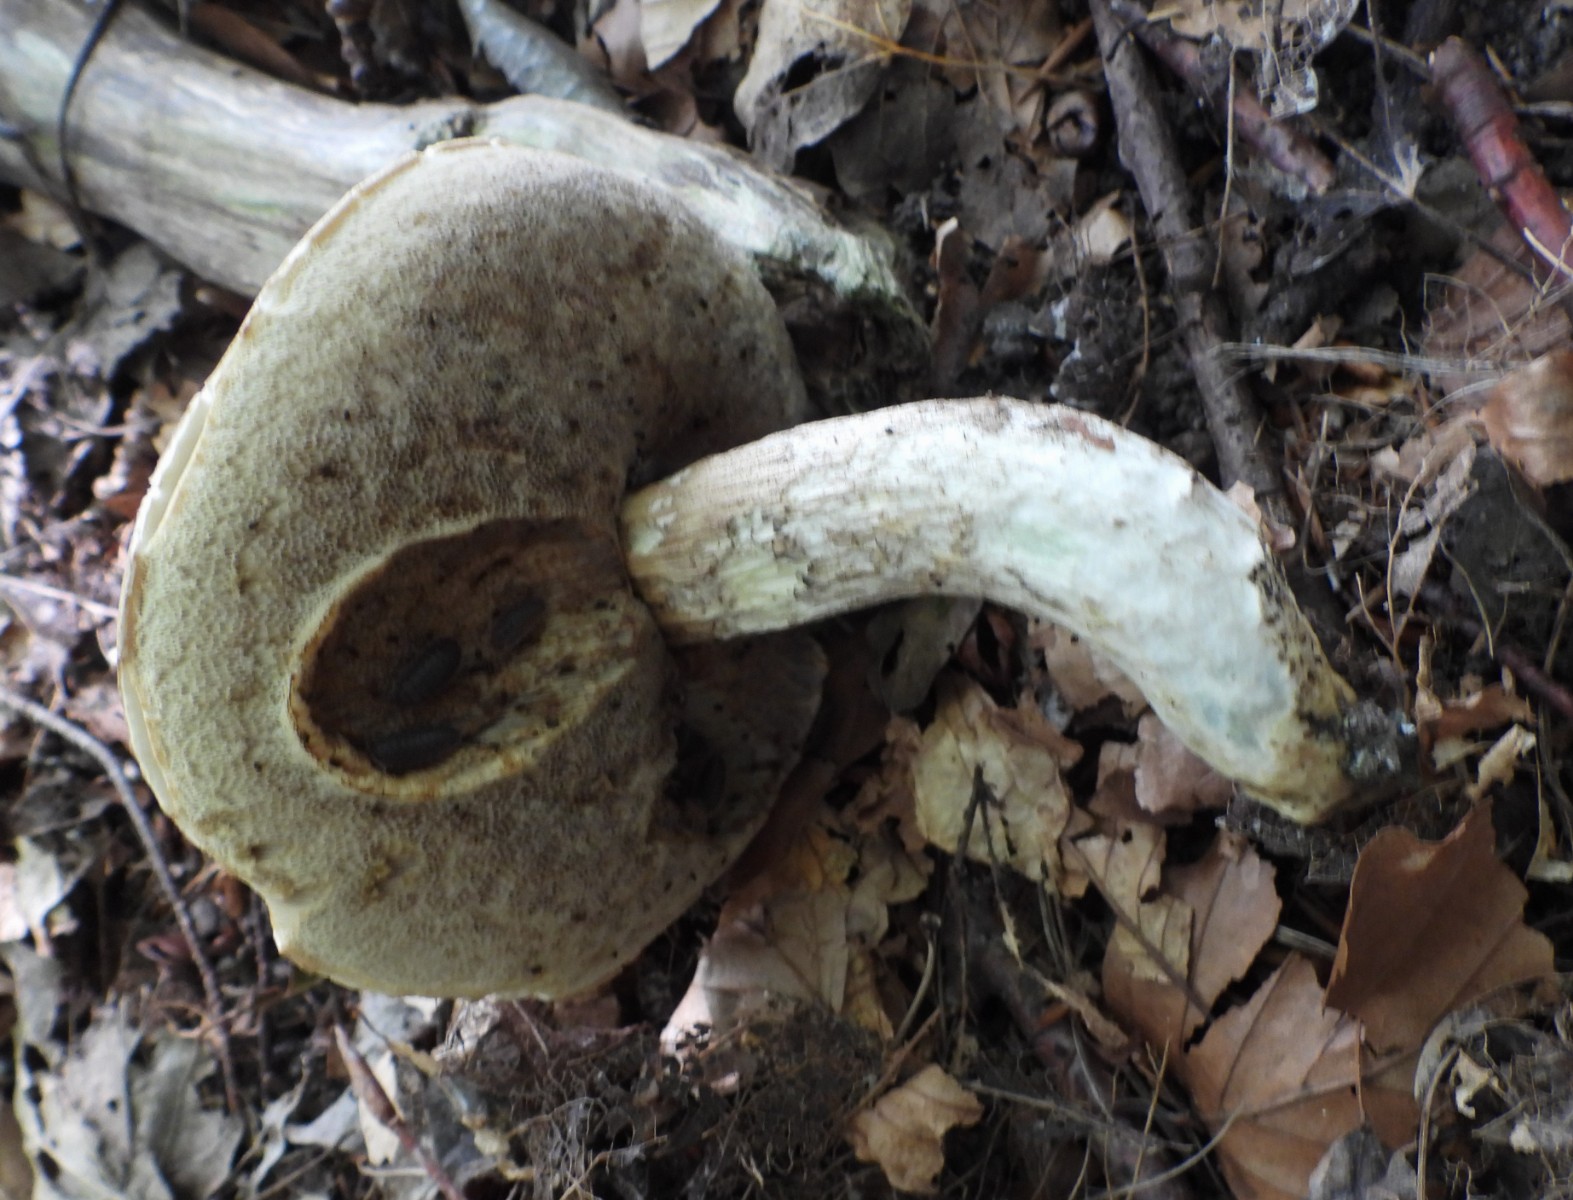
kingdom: Fungi
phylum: Basidiomycota
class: Agaricomycetes
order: Boletales
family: Boletaceae
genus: Leccinum
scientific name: Leccinum duriusculum
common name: poppel-skælrørhat
